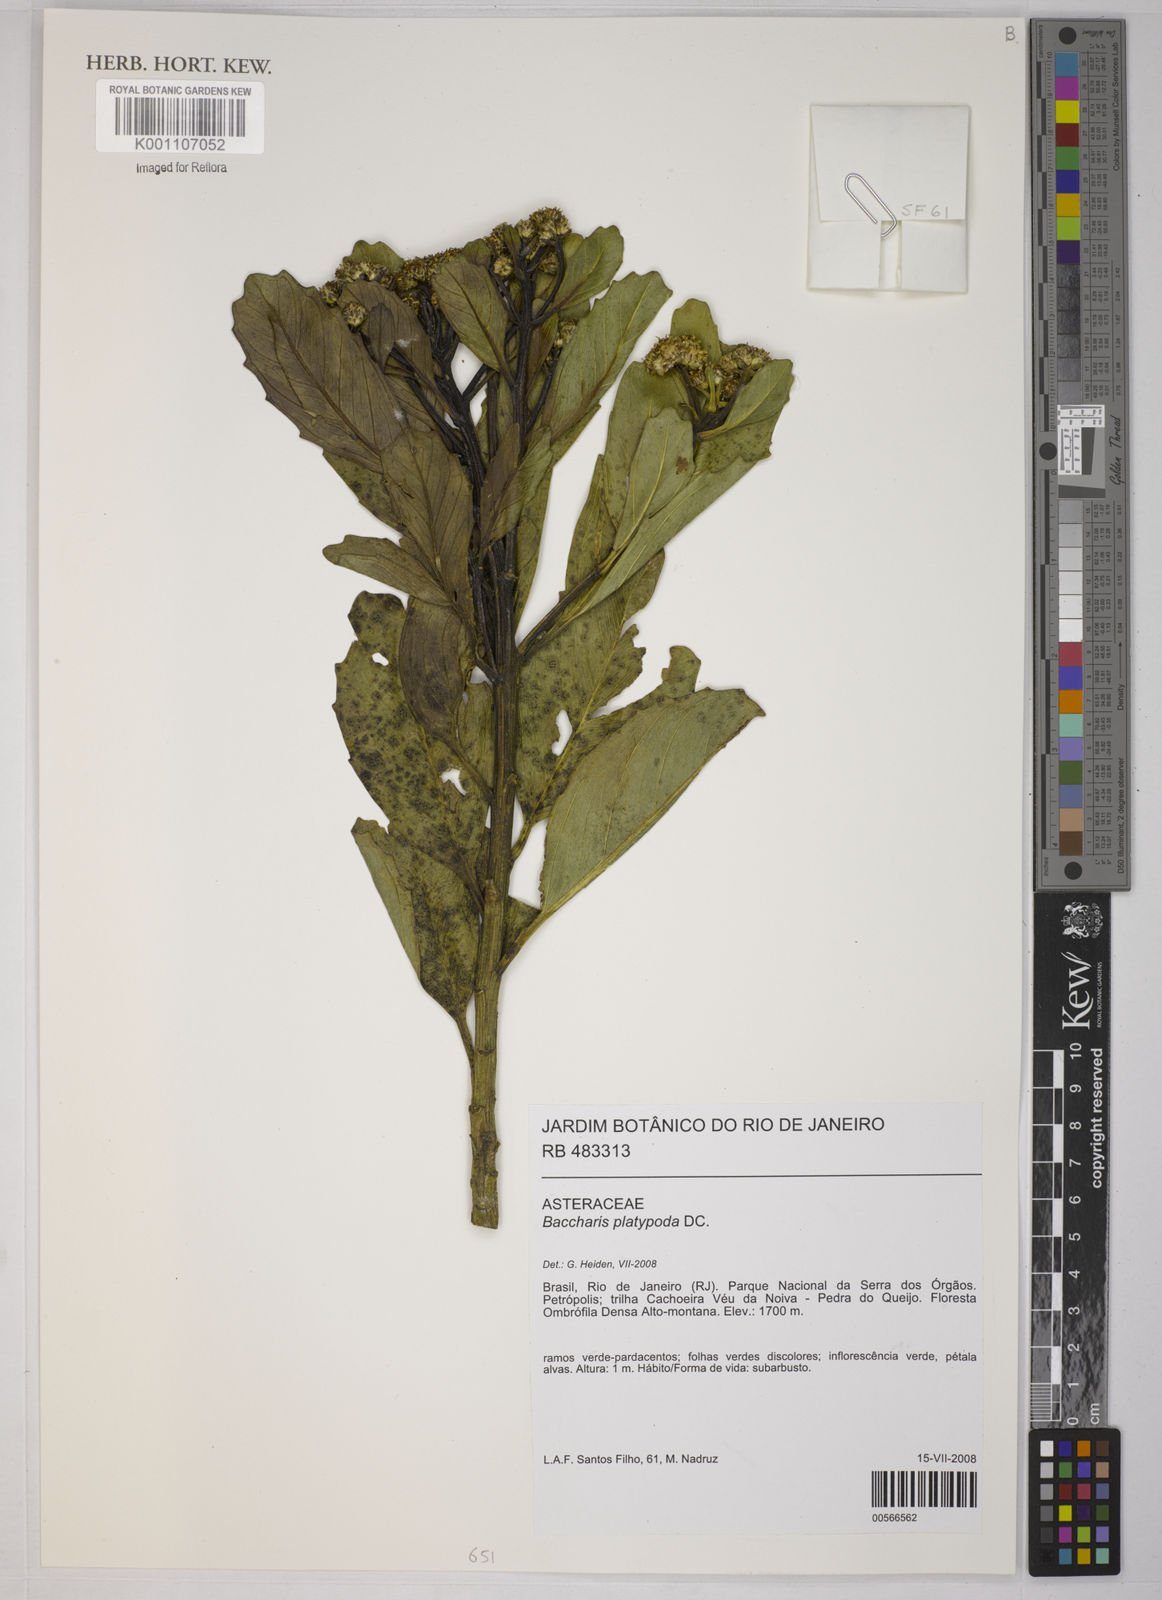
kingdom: Plantae
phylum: Tracheophyta
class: Magnoliopsida
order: Asterales
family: Asteraceae
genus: Baccharis
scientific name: Baccharis platypoda
